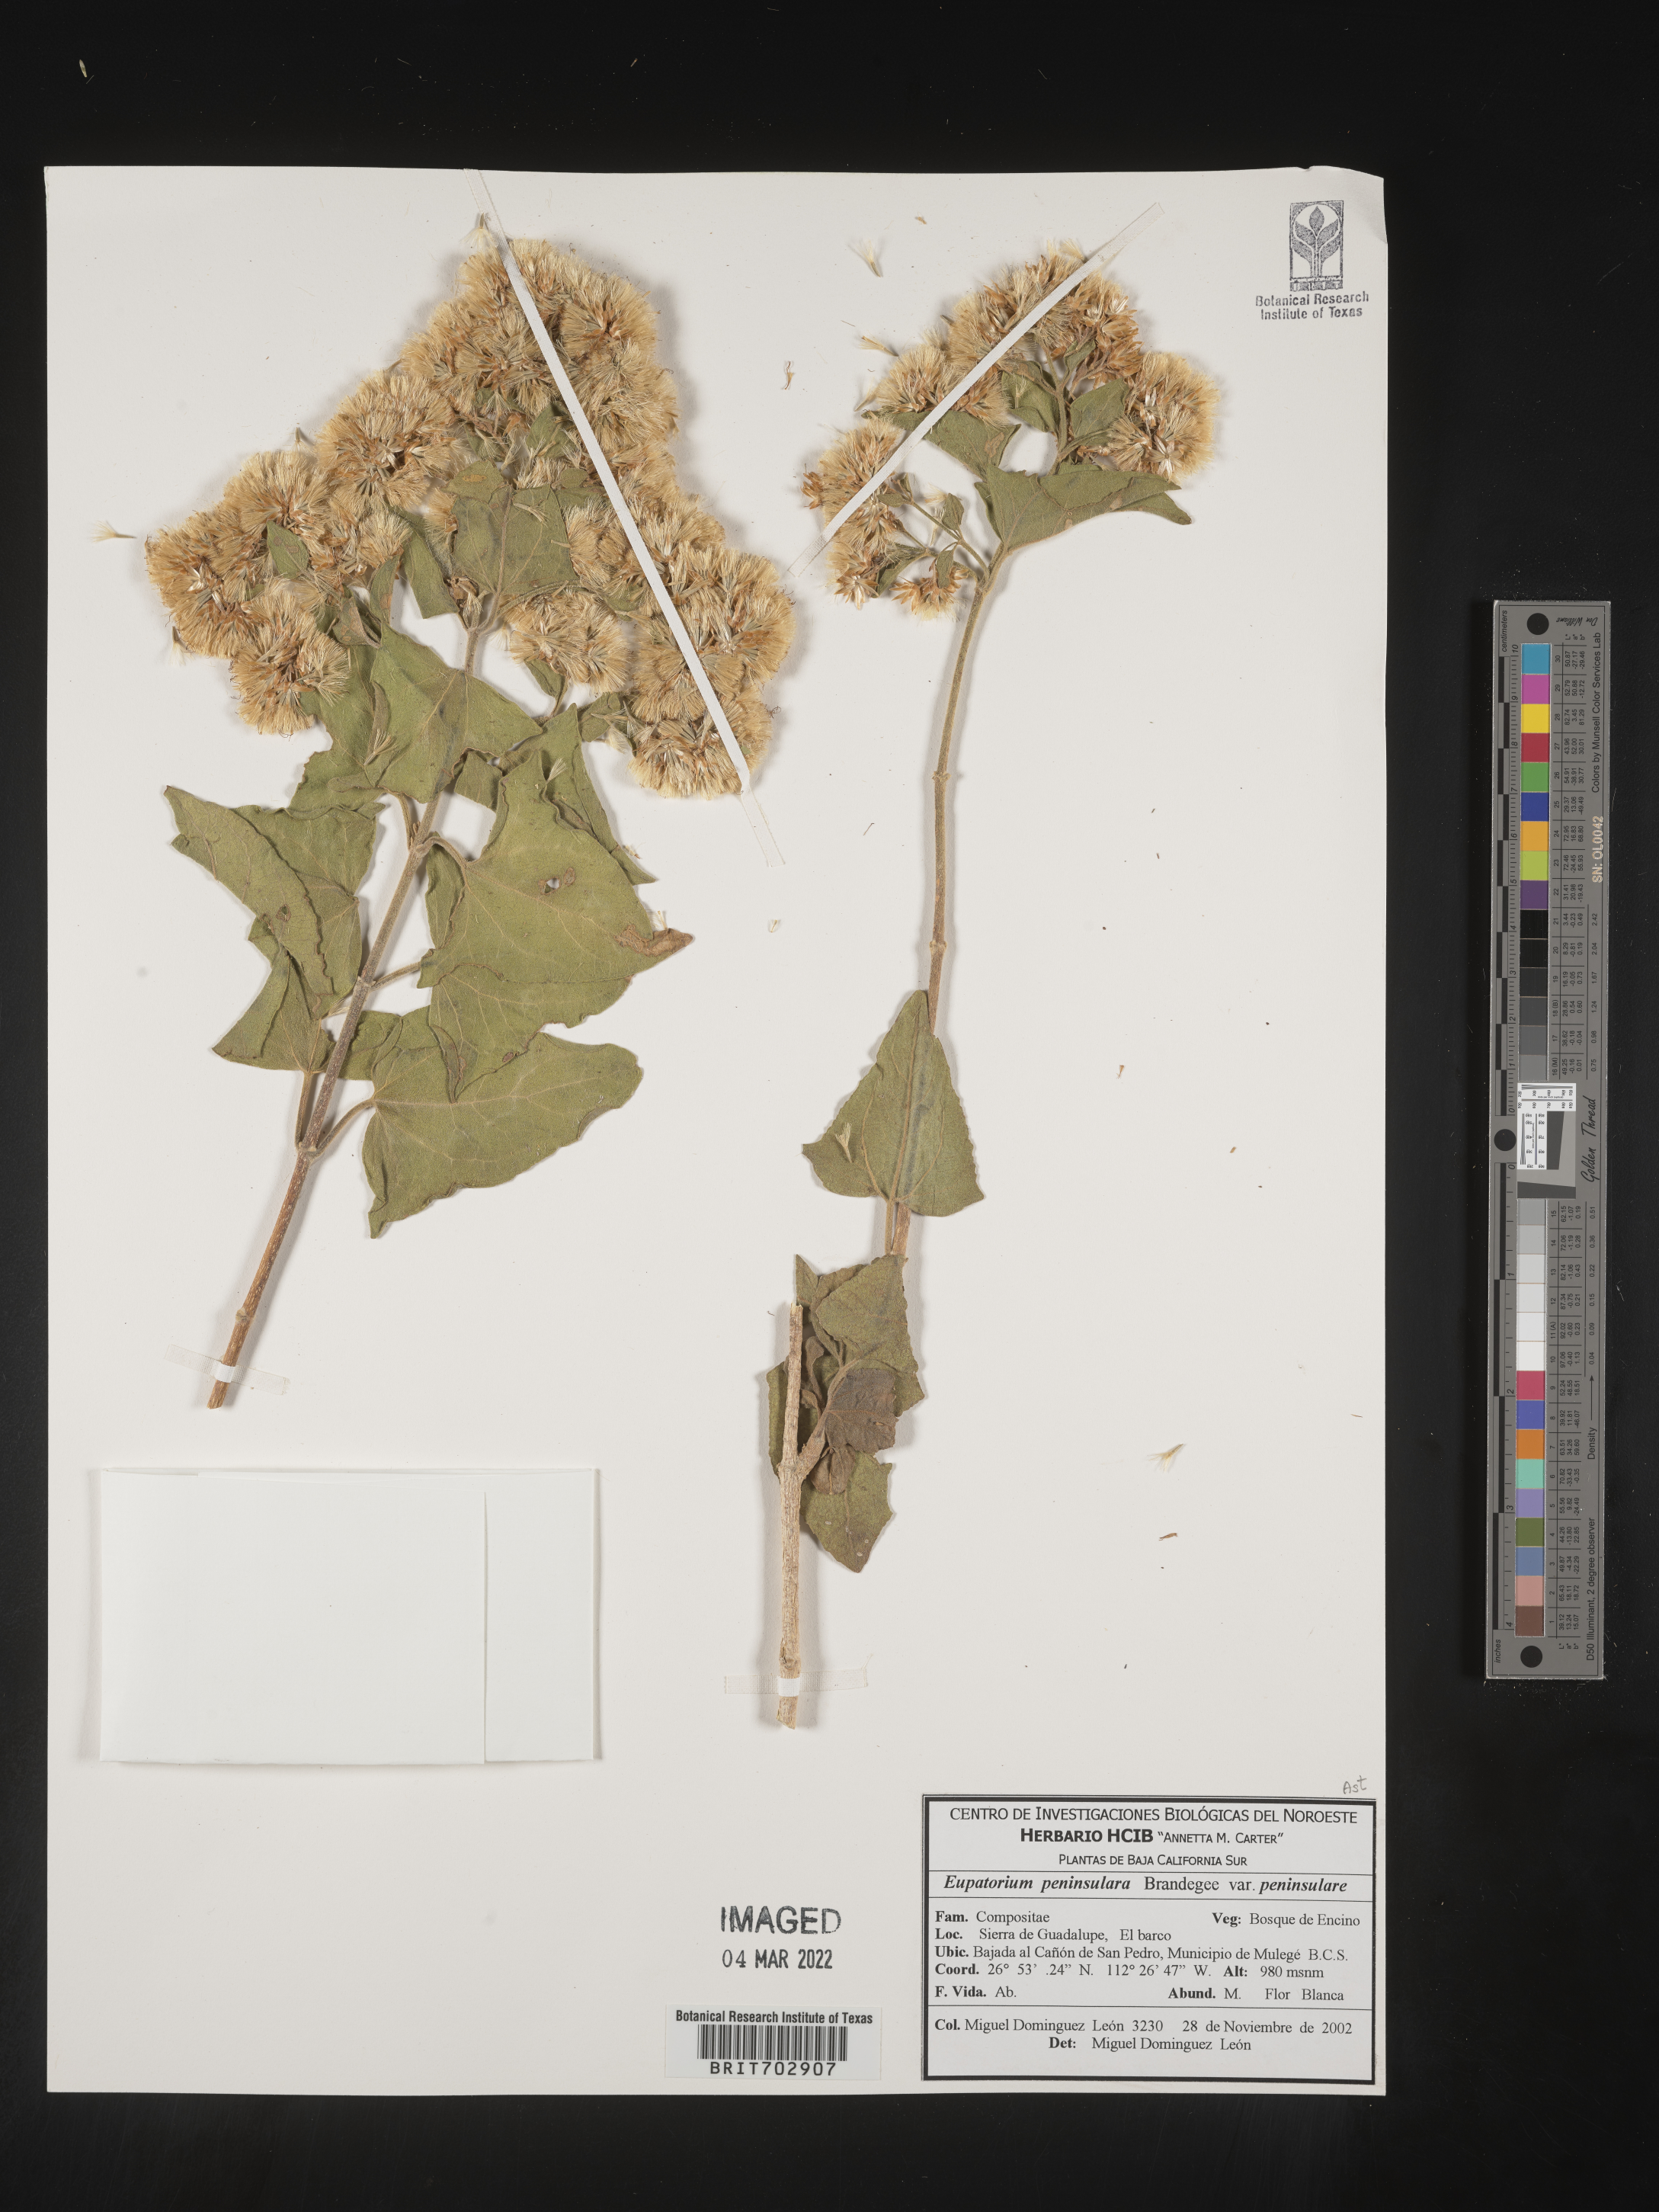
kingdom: Plantae
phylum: Tracheophyta
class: Magnoliopsida
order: Asterales
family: Asteraceae
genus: Eupatorium
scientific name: Eupatorium
